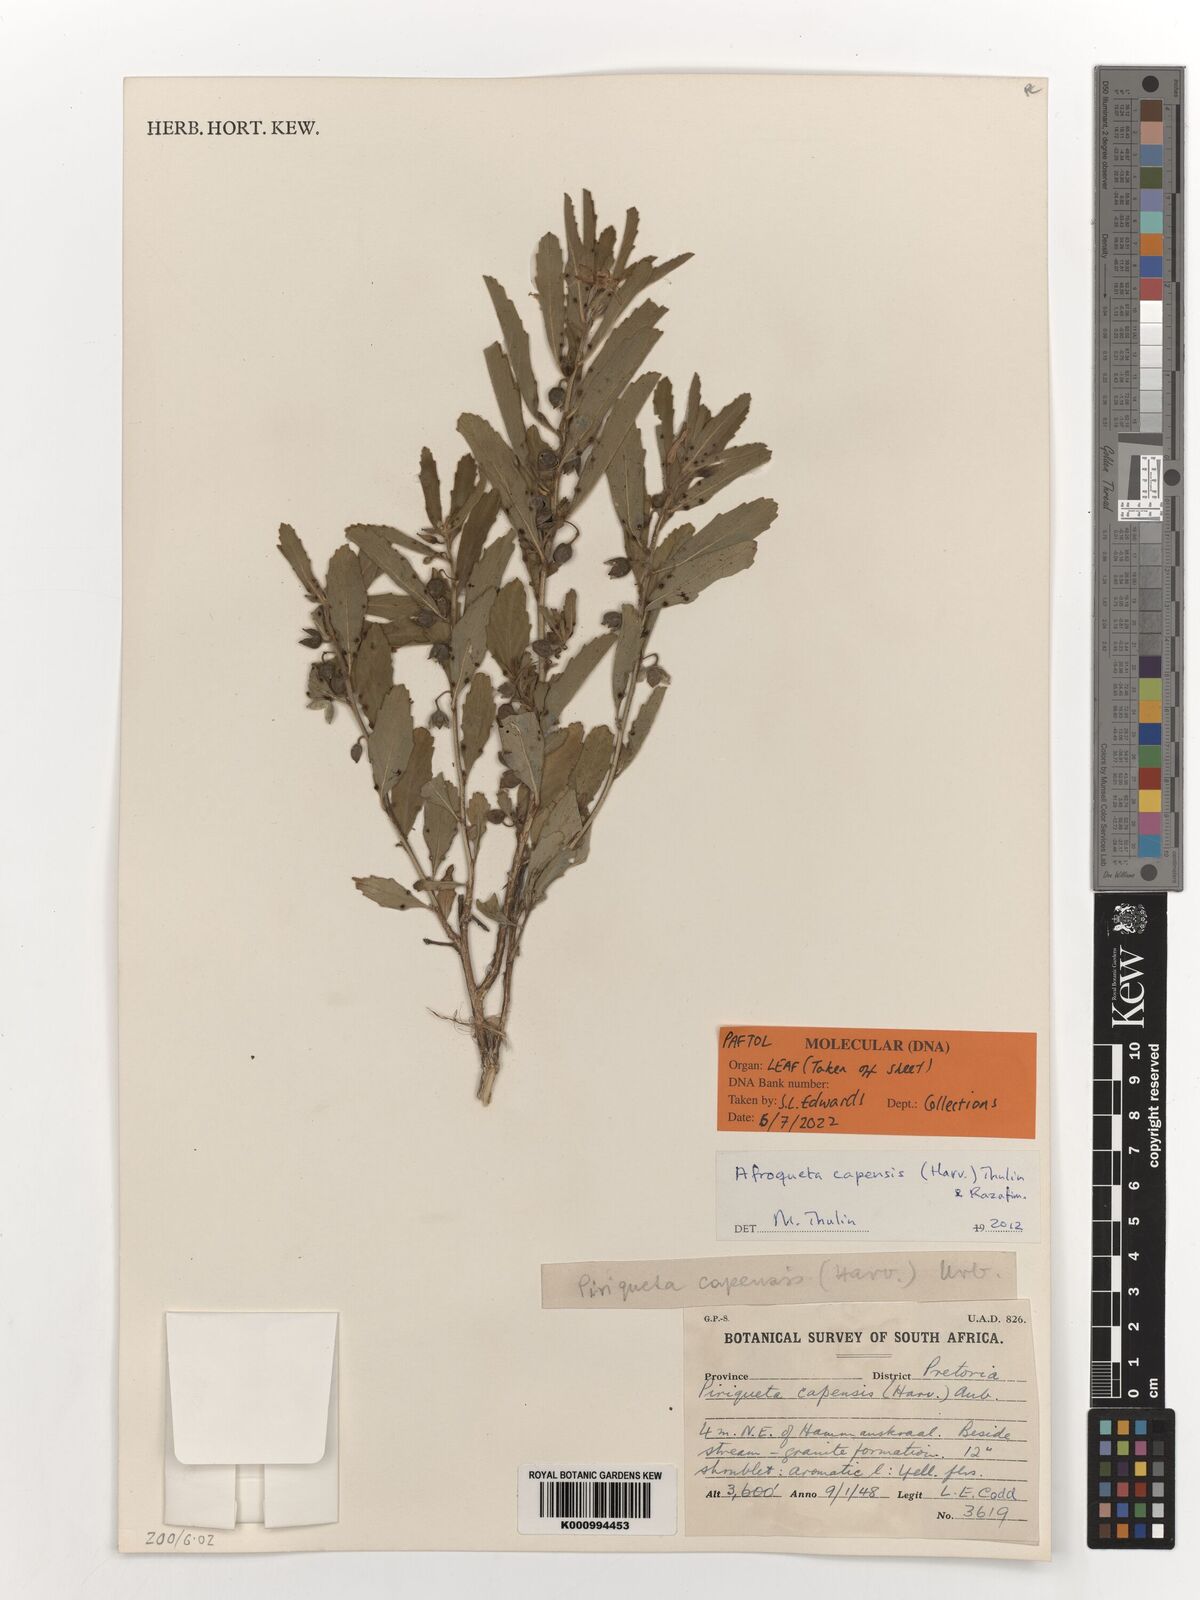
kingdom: Plantae
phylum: Tracheophyta
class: Magnoliopsida
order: Malpighiales
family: Turneraceae
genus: Afroqueta
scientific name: Afroqueta capensis
